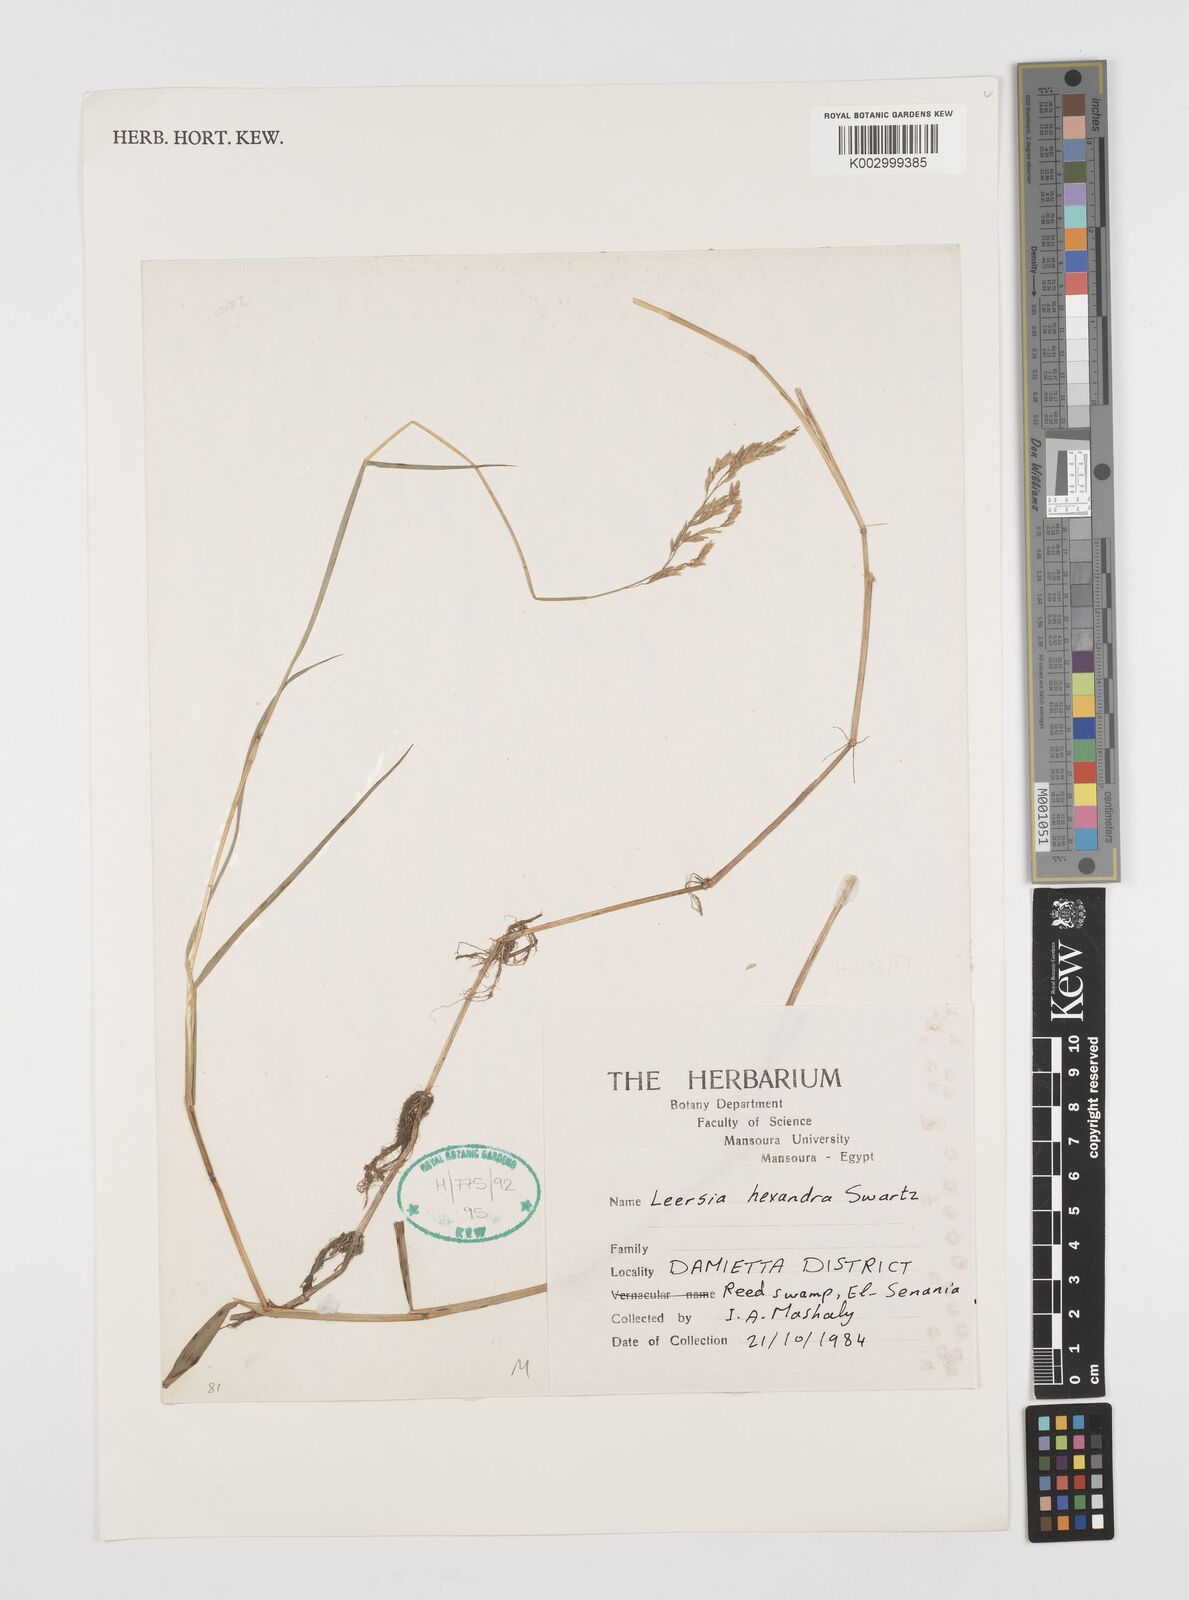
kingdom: Plantae
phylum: Tracheophyta
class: Liliopsida
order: Poales
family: Poaceae
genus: Leersia
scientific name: Leersia hexandra
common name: Southern cut grass
